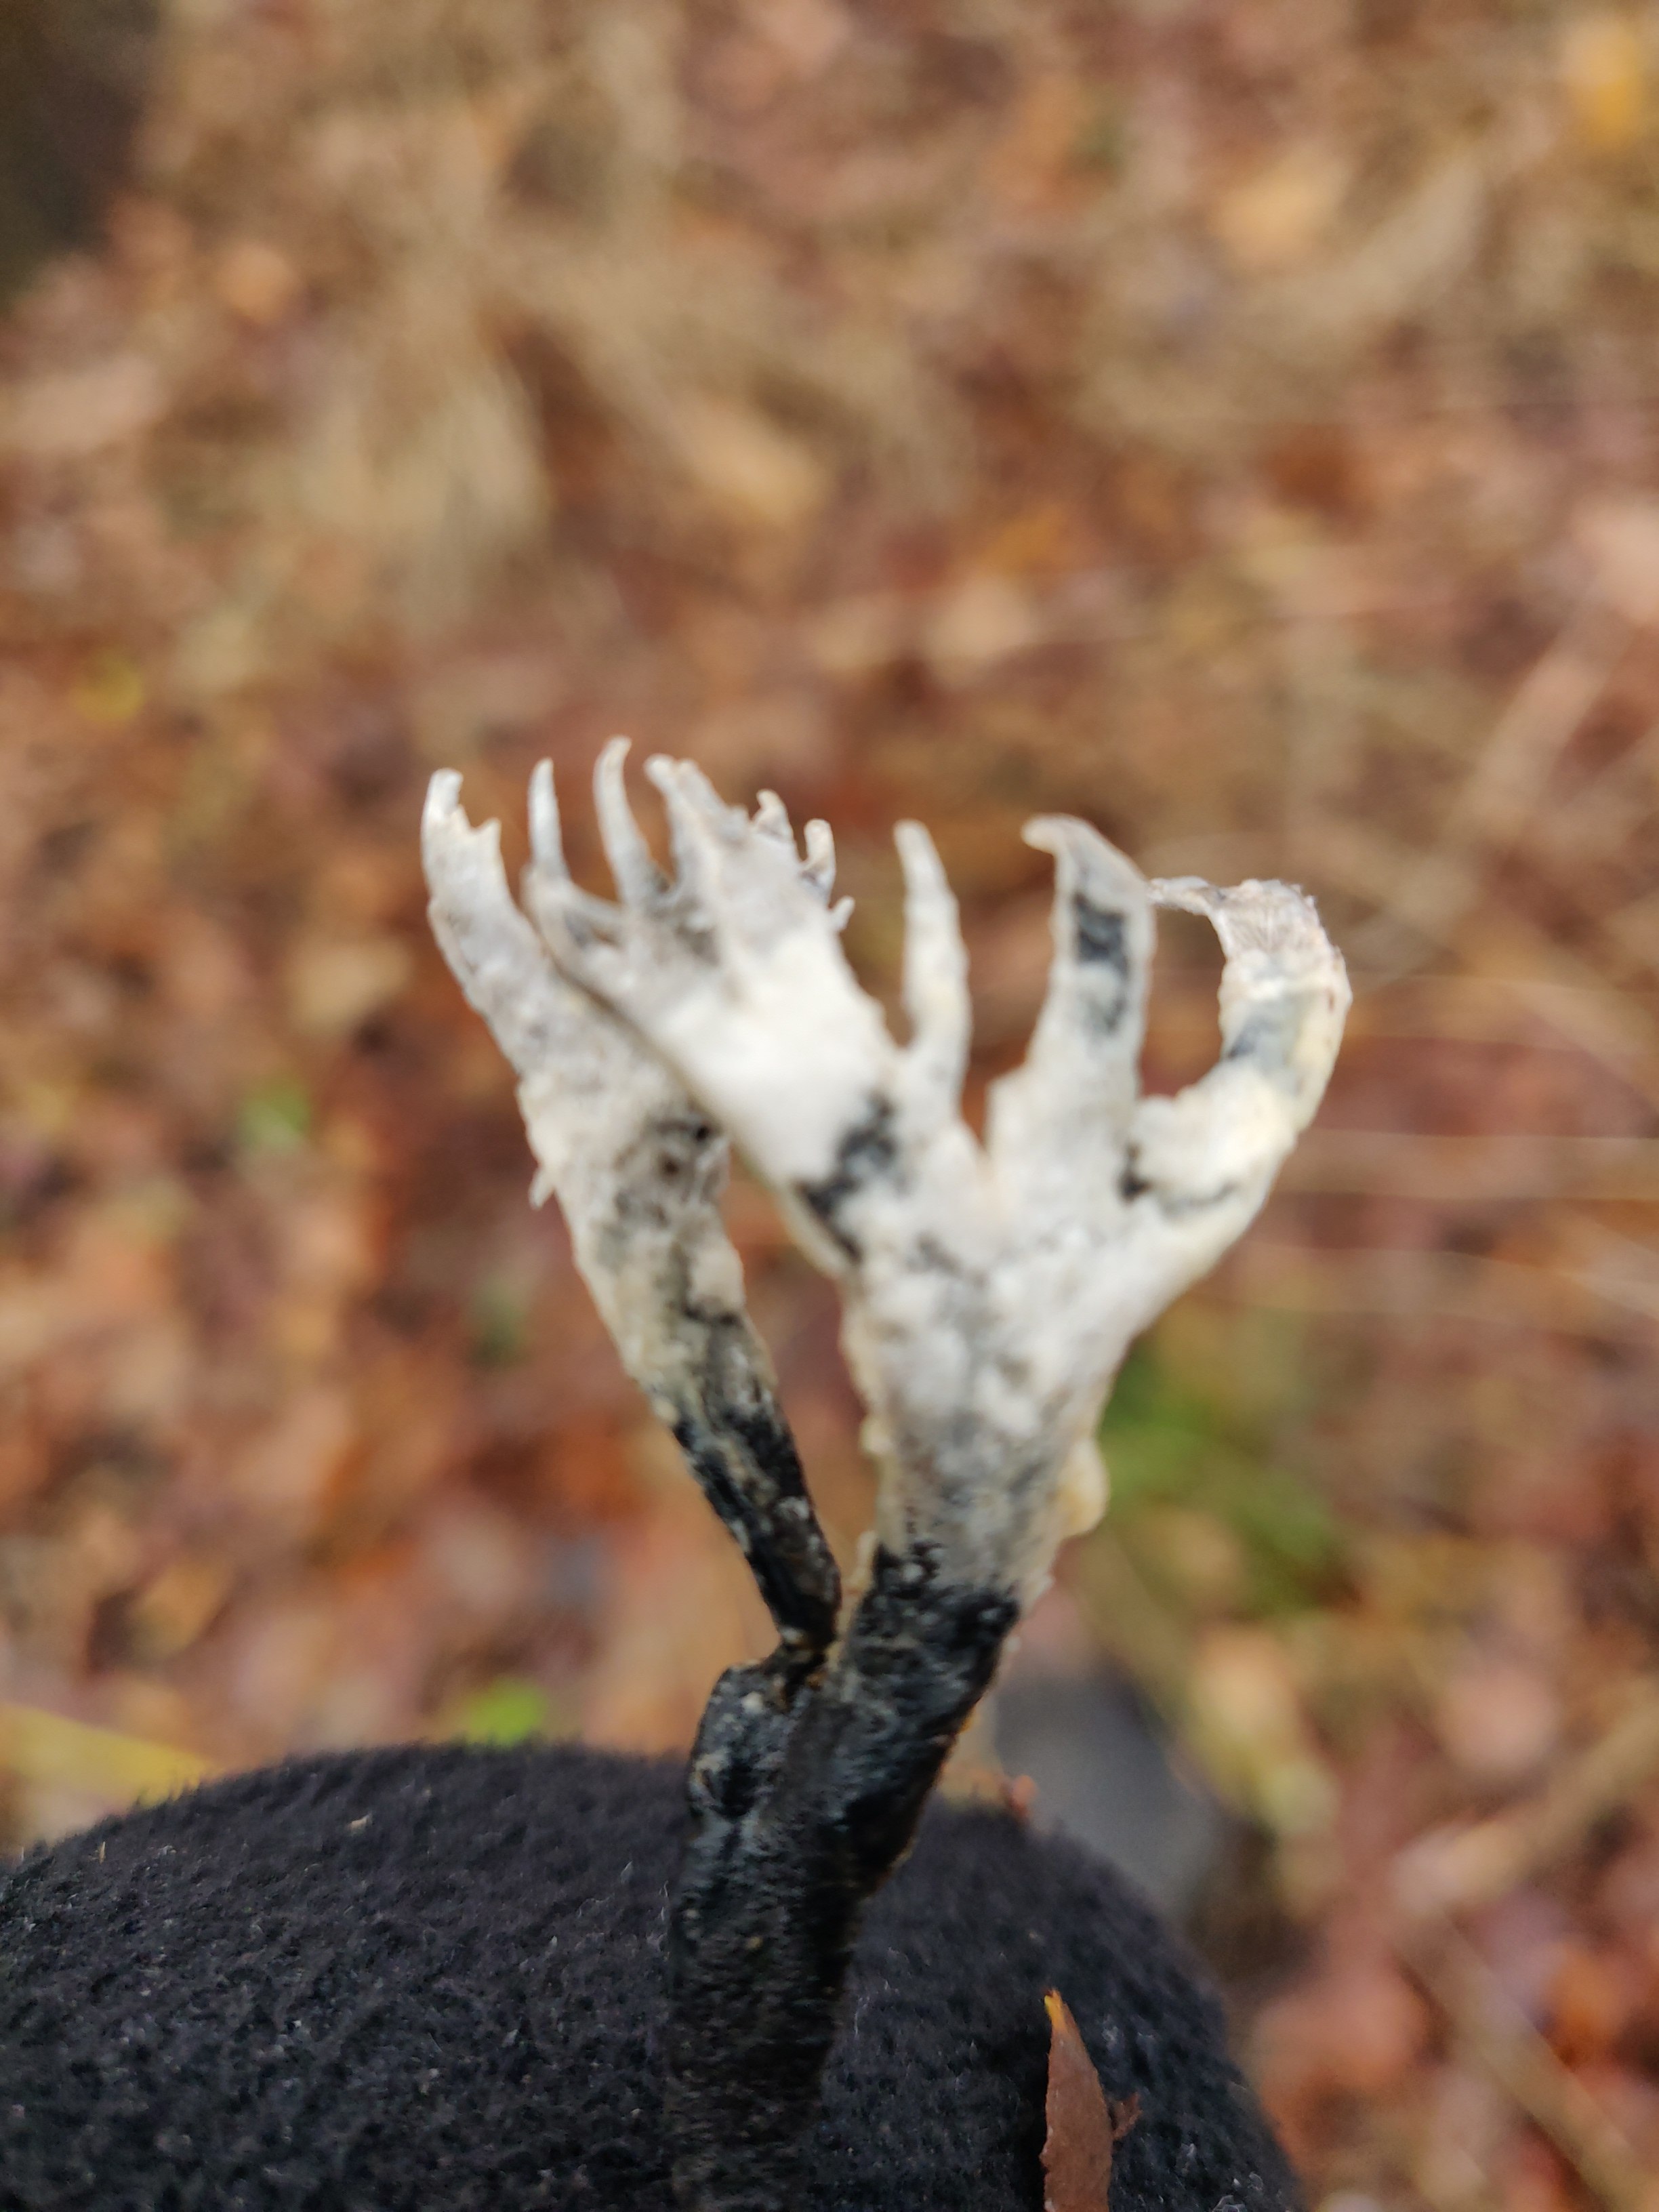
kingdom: Fungi
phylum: Ascomycota
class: Sordariomycetes
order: Xylariales
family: Xylariaceae
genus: Xylaria
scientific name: Xylaria hypoxylon
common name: grenet stødsvamp
